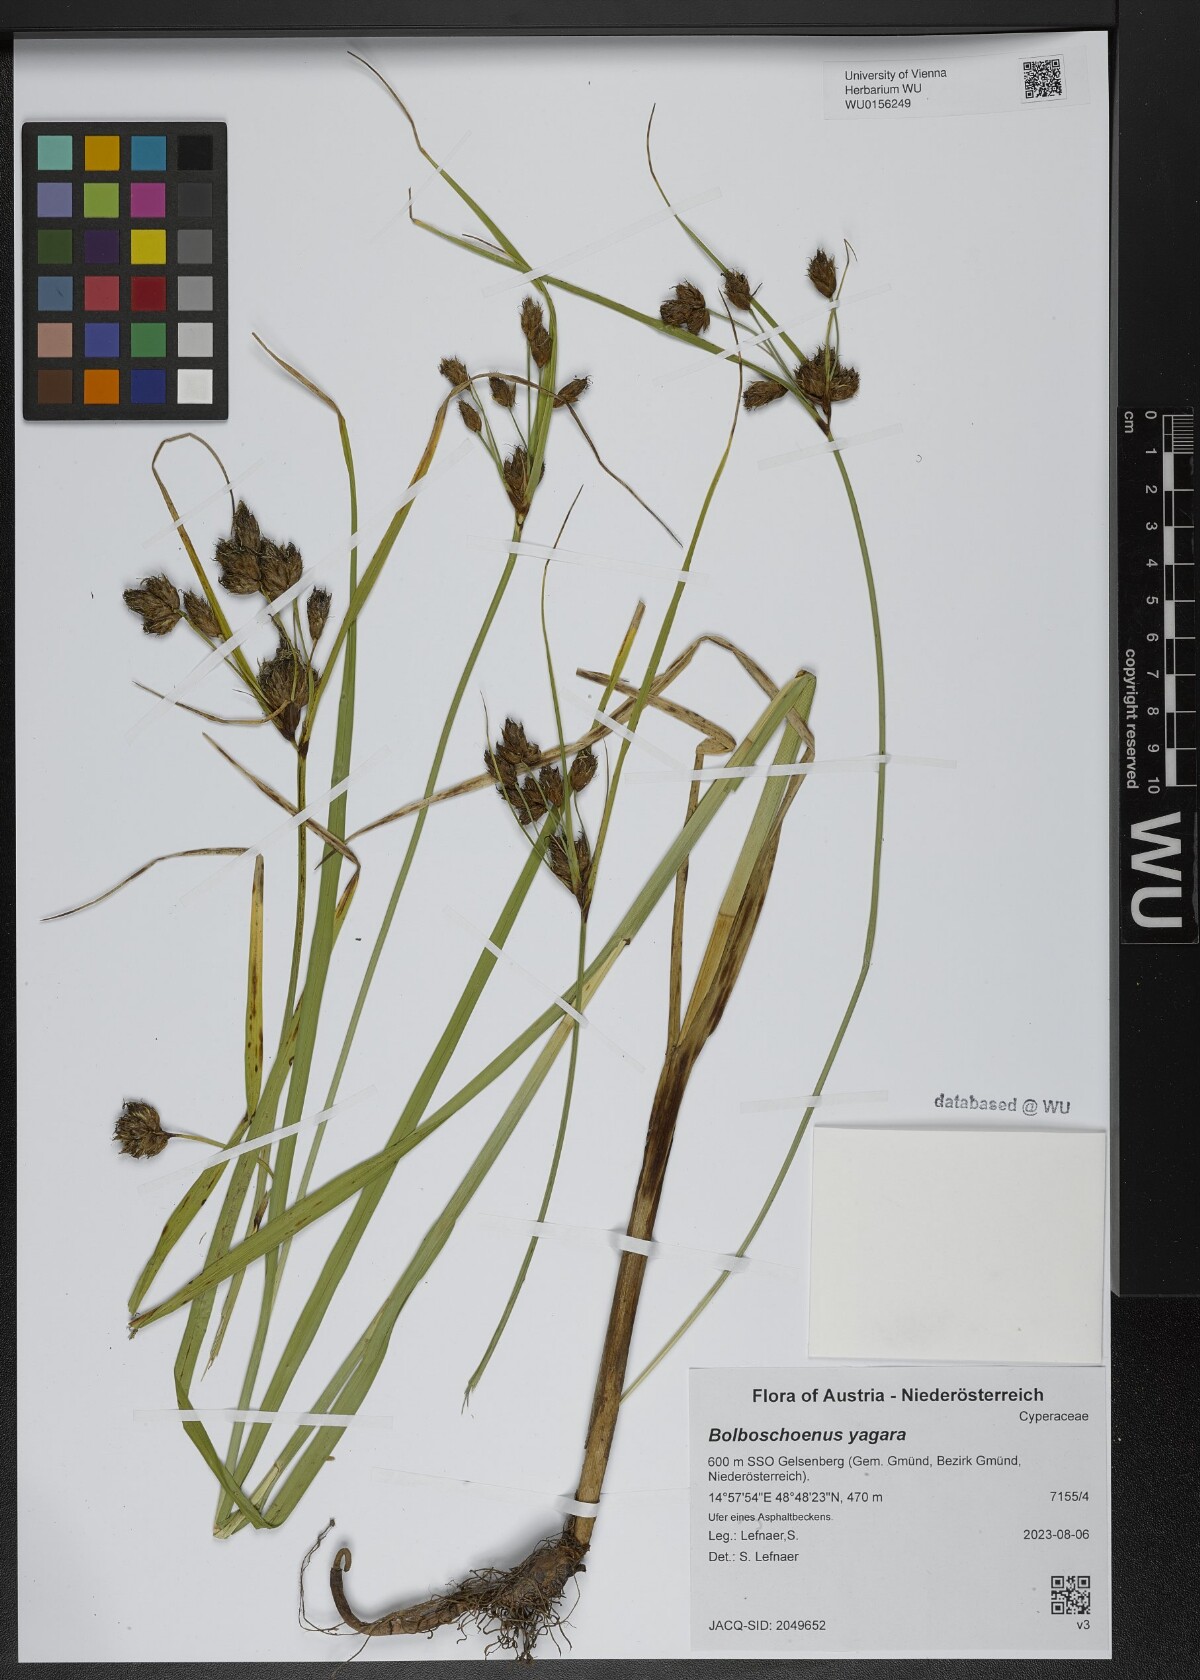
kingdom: Plantae
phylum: Tracheophyta
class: Liliopsida
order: Poales
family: Cyperaceae
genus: Bolboschoenus
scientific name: Bolboschoenus yagara
